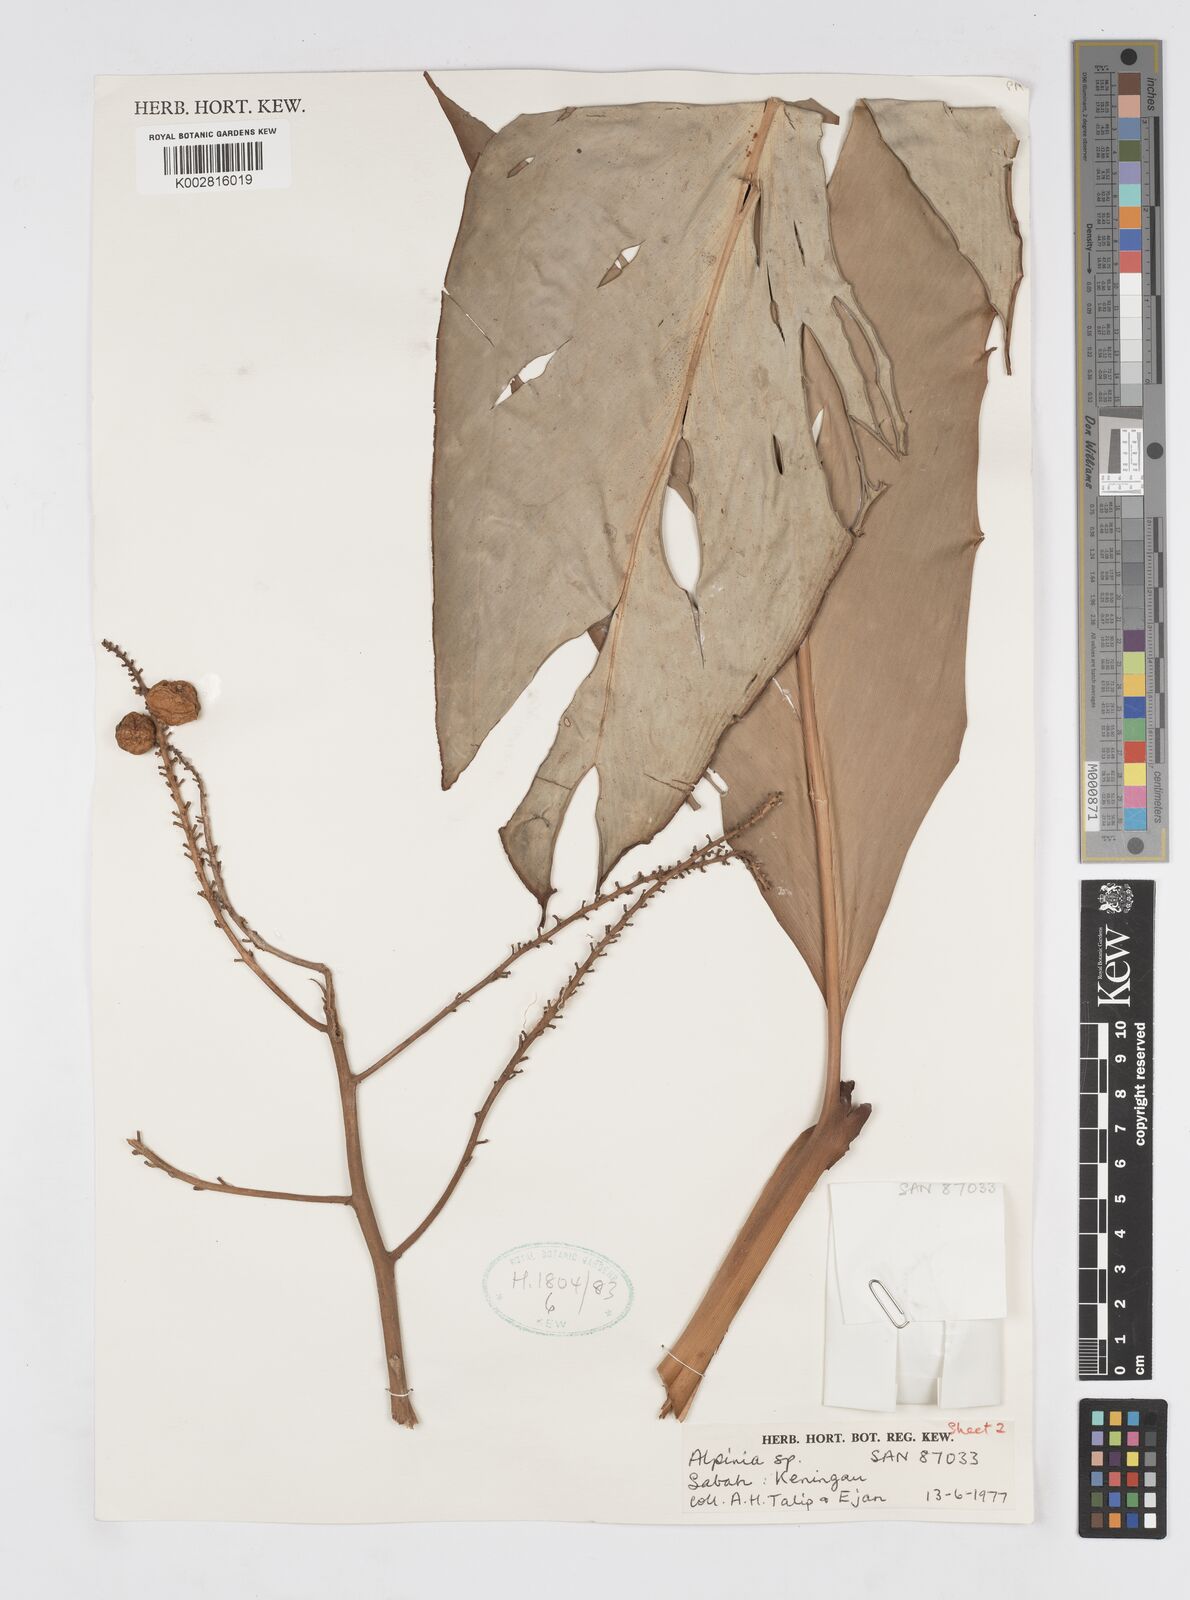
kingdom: Plantae
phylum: Tracheophyta
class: Liliopsida
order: Zingiberales
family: Zingiberaceae
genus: Alpinia
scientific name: Alpinia nieuwenhuizii
